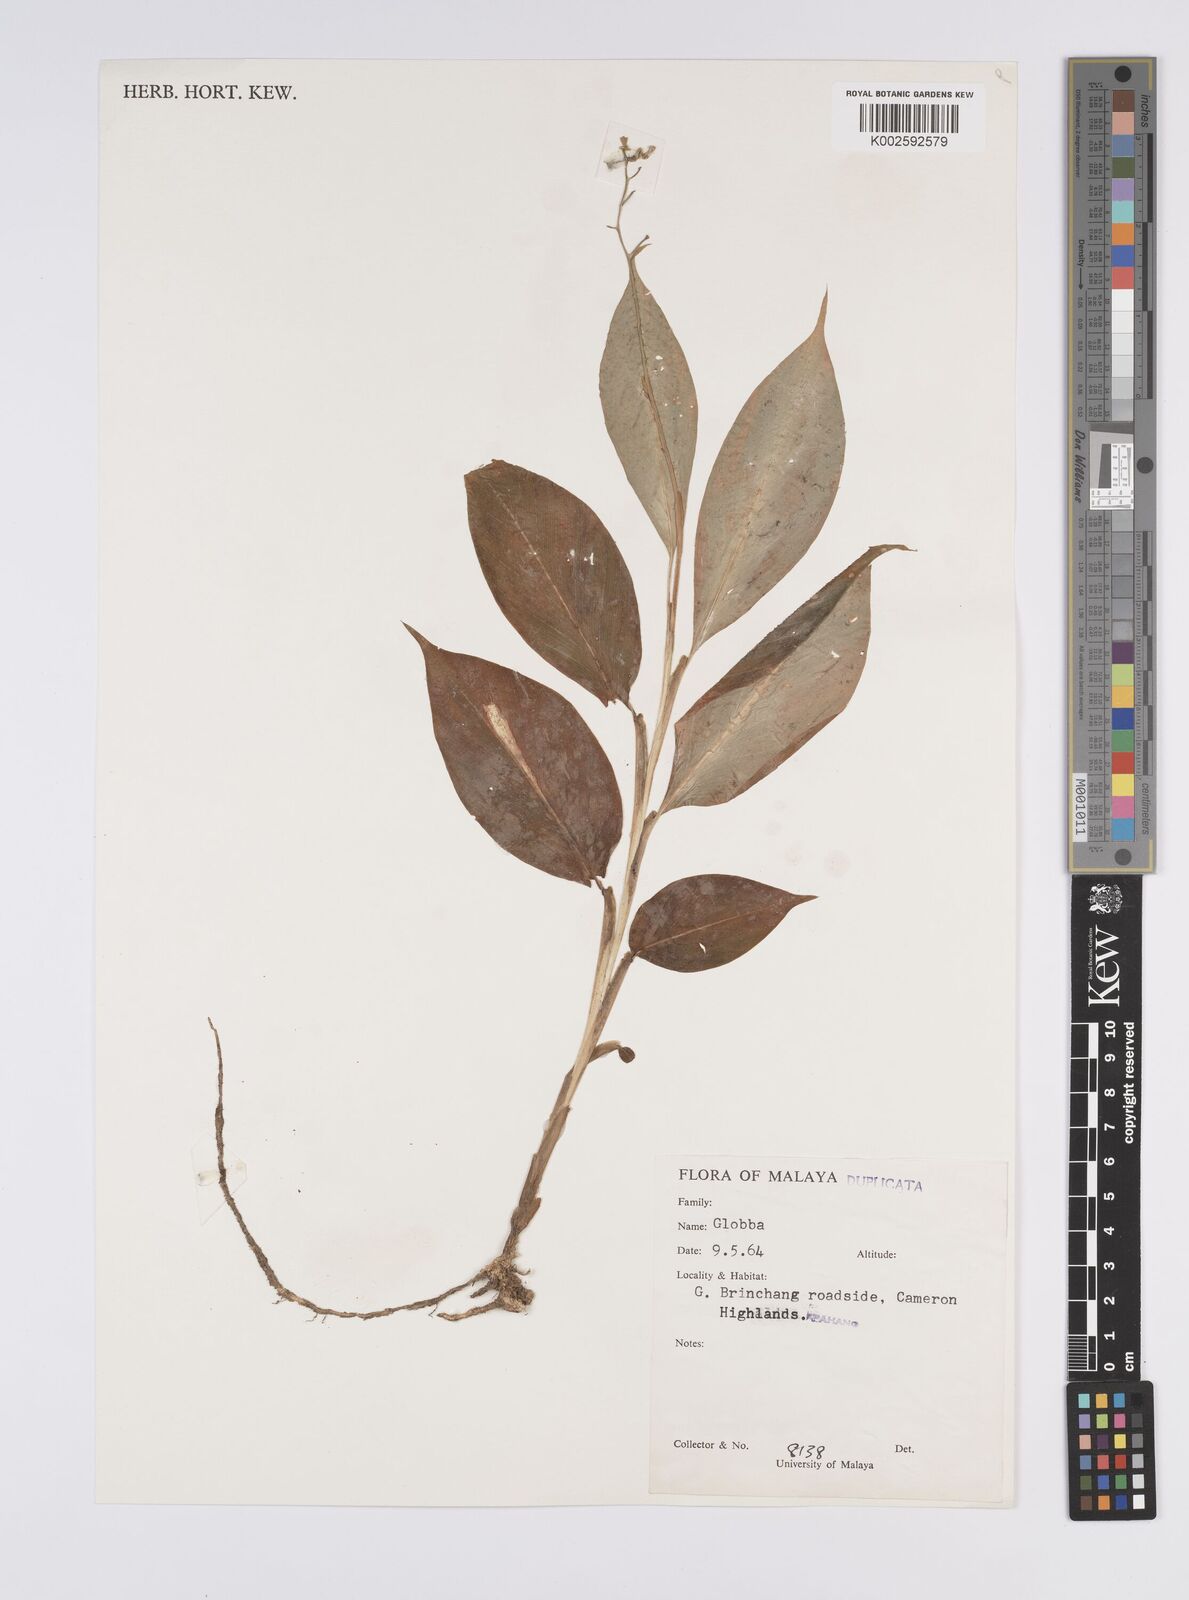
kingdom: Plantae
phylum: Tracheophyta
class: Liliopsida
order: Zingiberales
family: Zingiberaceae
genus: Globba
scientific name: Globba
